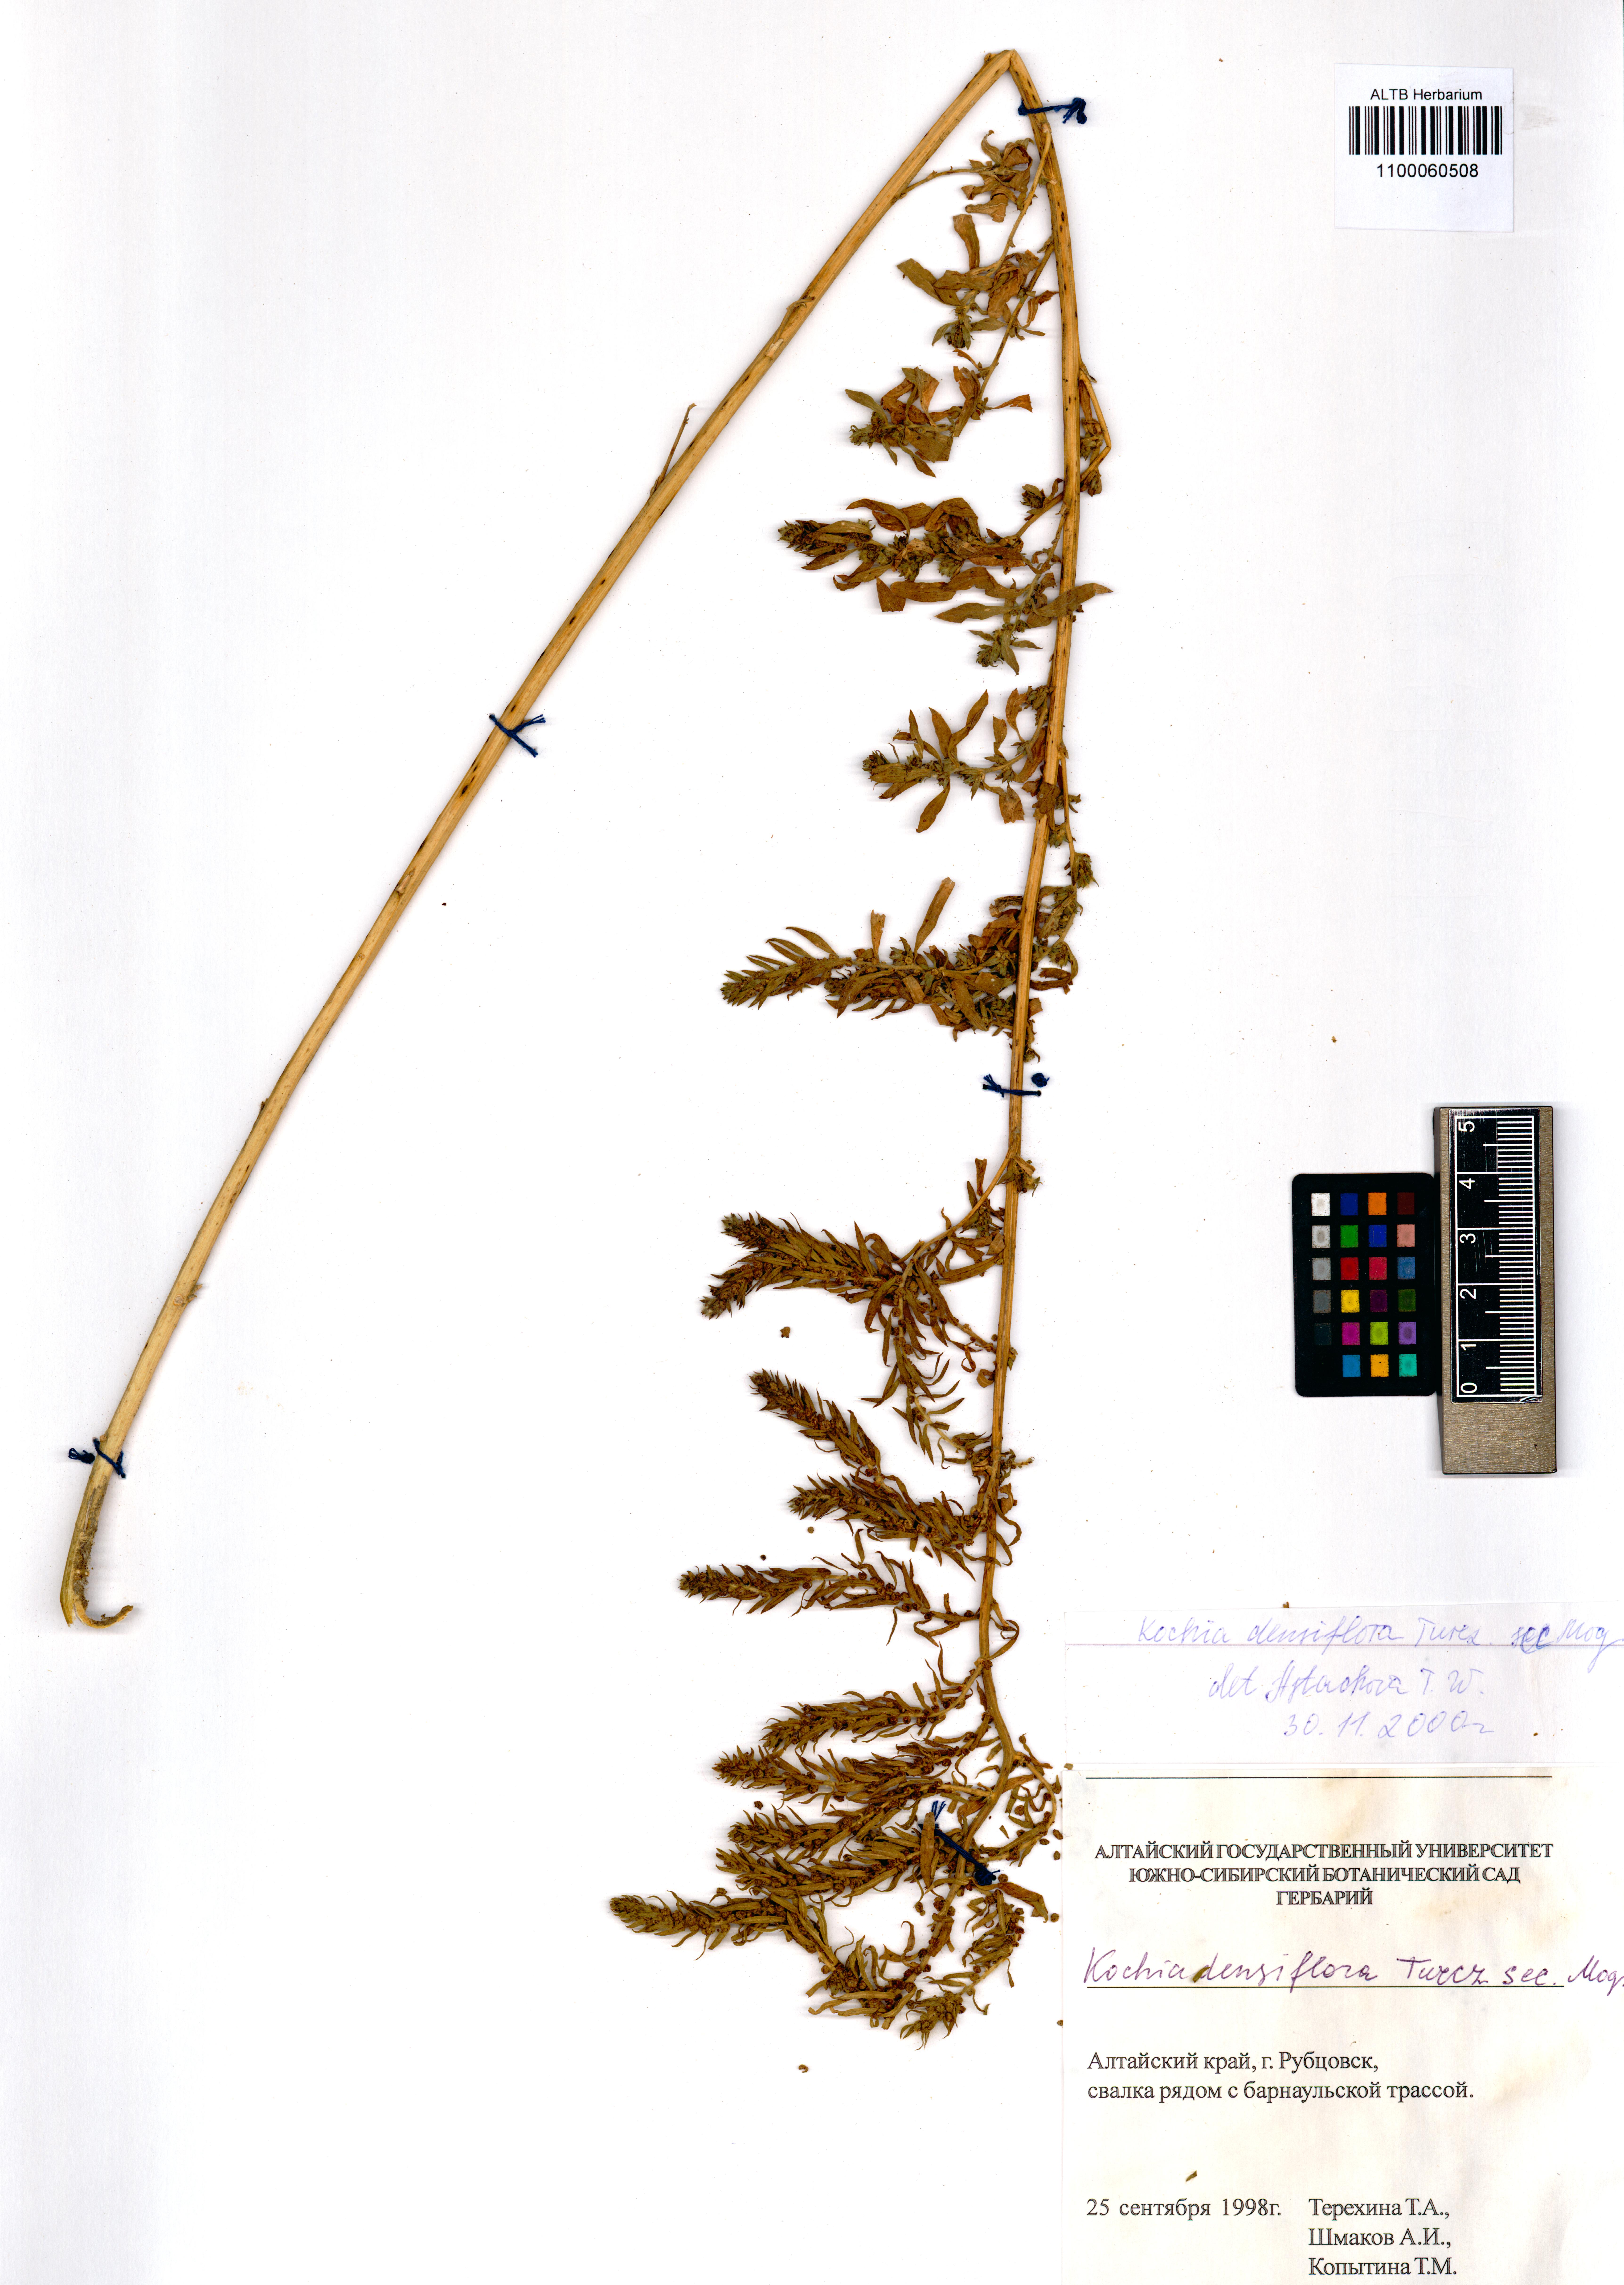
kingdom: Plantae
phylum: Tracheophyta
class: Magnoliopsida
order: Caryophyllales
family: Amaranthaceae
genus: Bassia
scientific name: Bassia scoparia
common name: Belvedere
